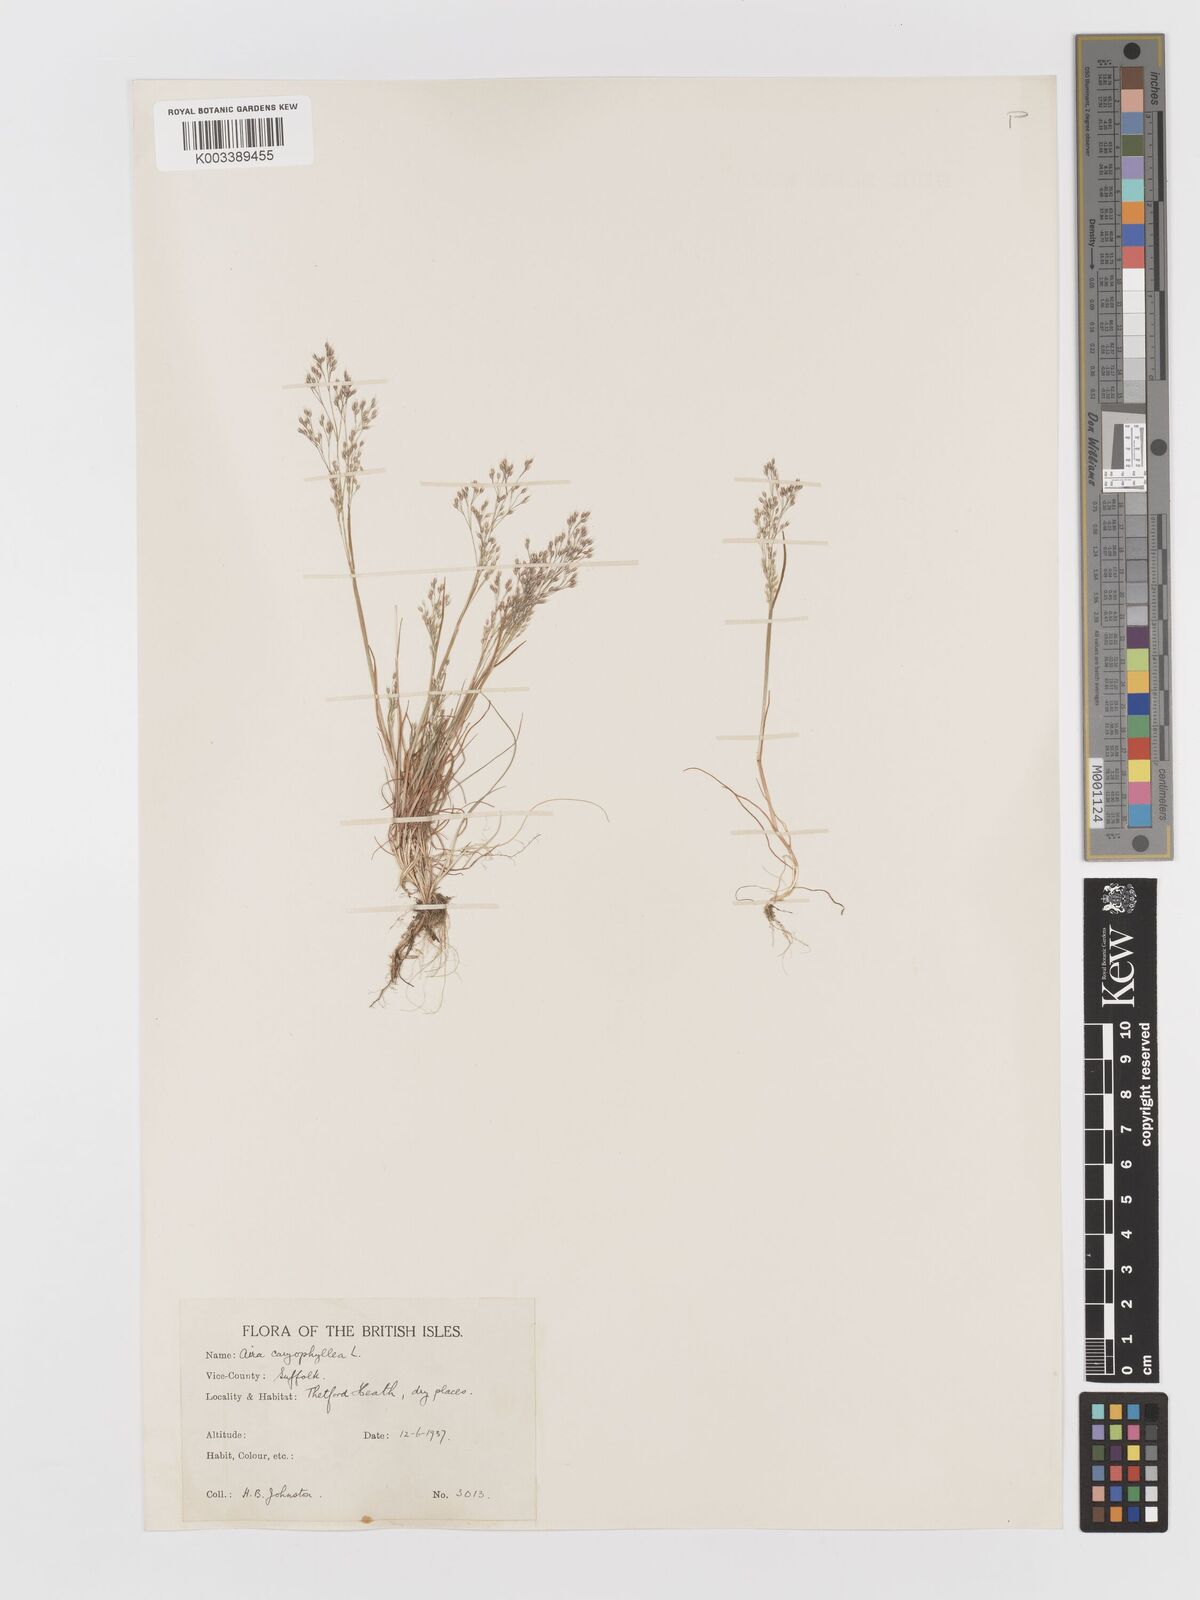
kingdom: Plantae
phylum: Tracheophyta
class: Liliopsida
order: Poales
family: Poaceae
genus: Aira
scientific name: Aira caryophyllea
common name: Silver hairgrass
